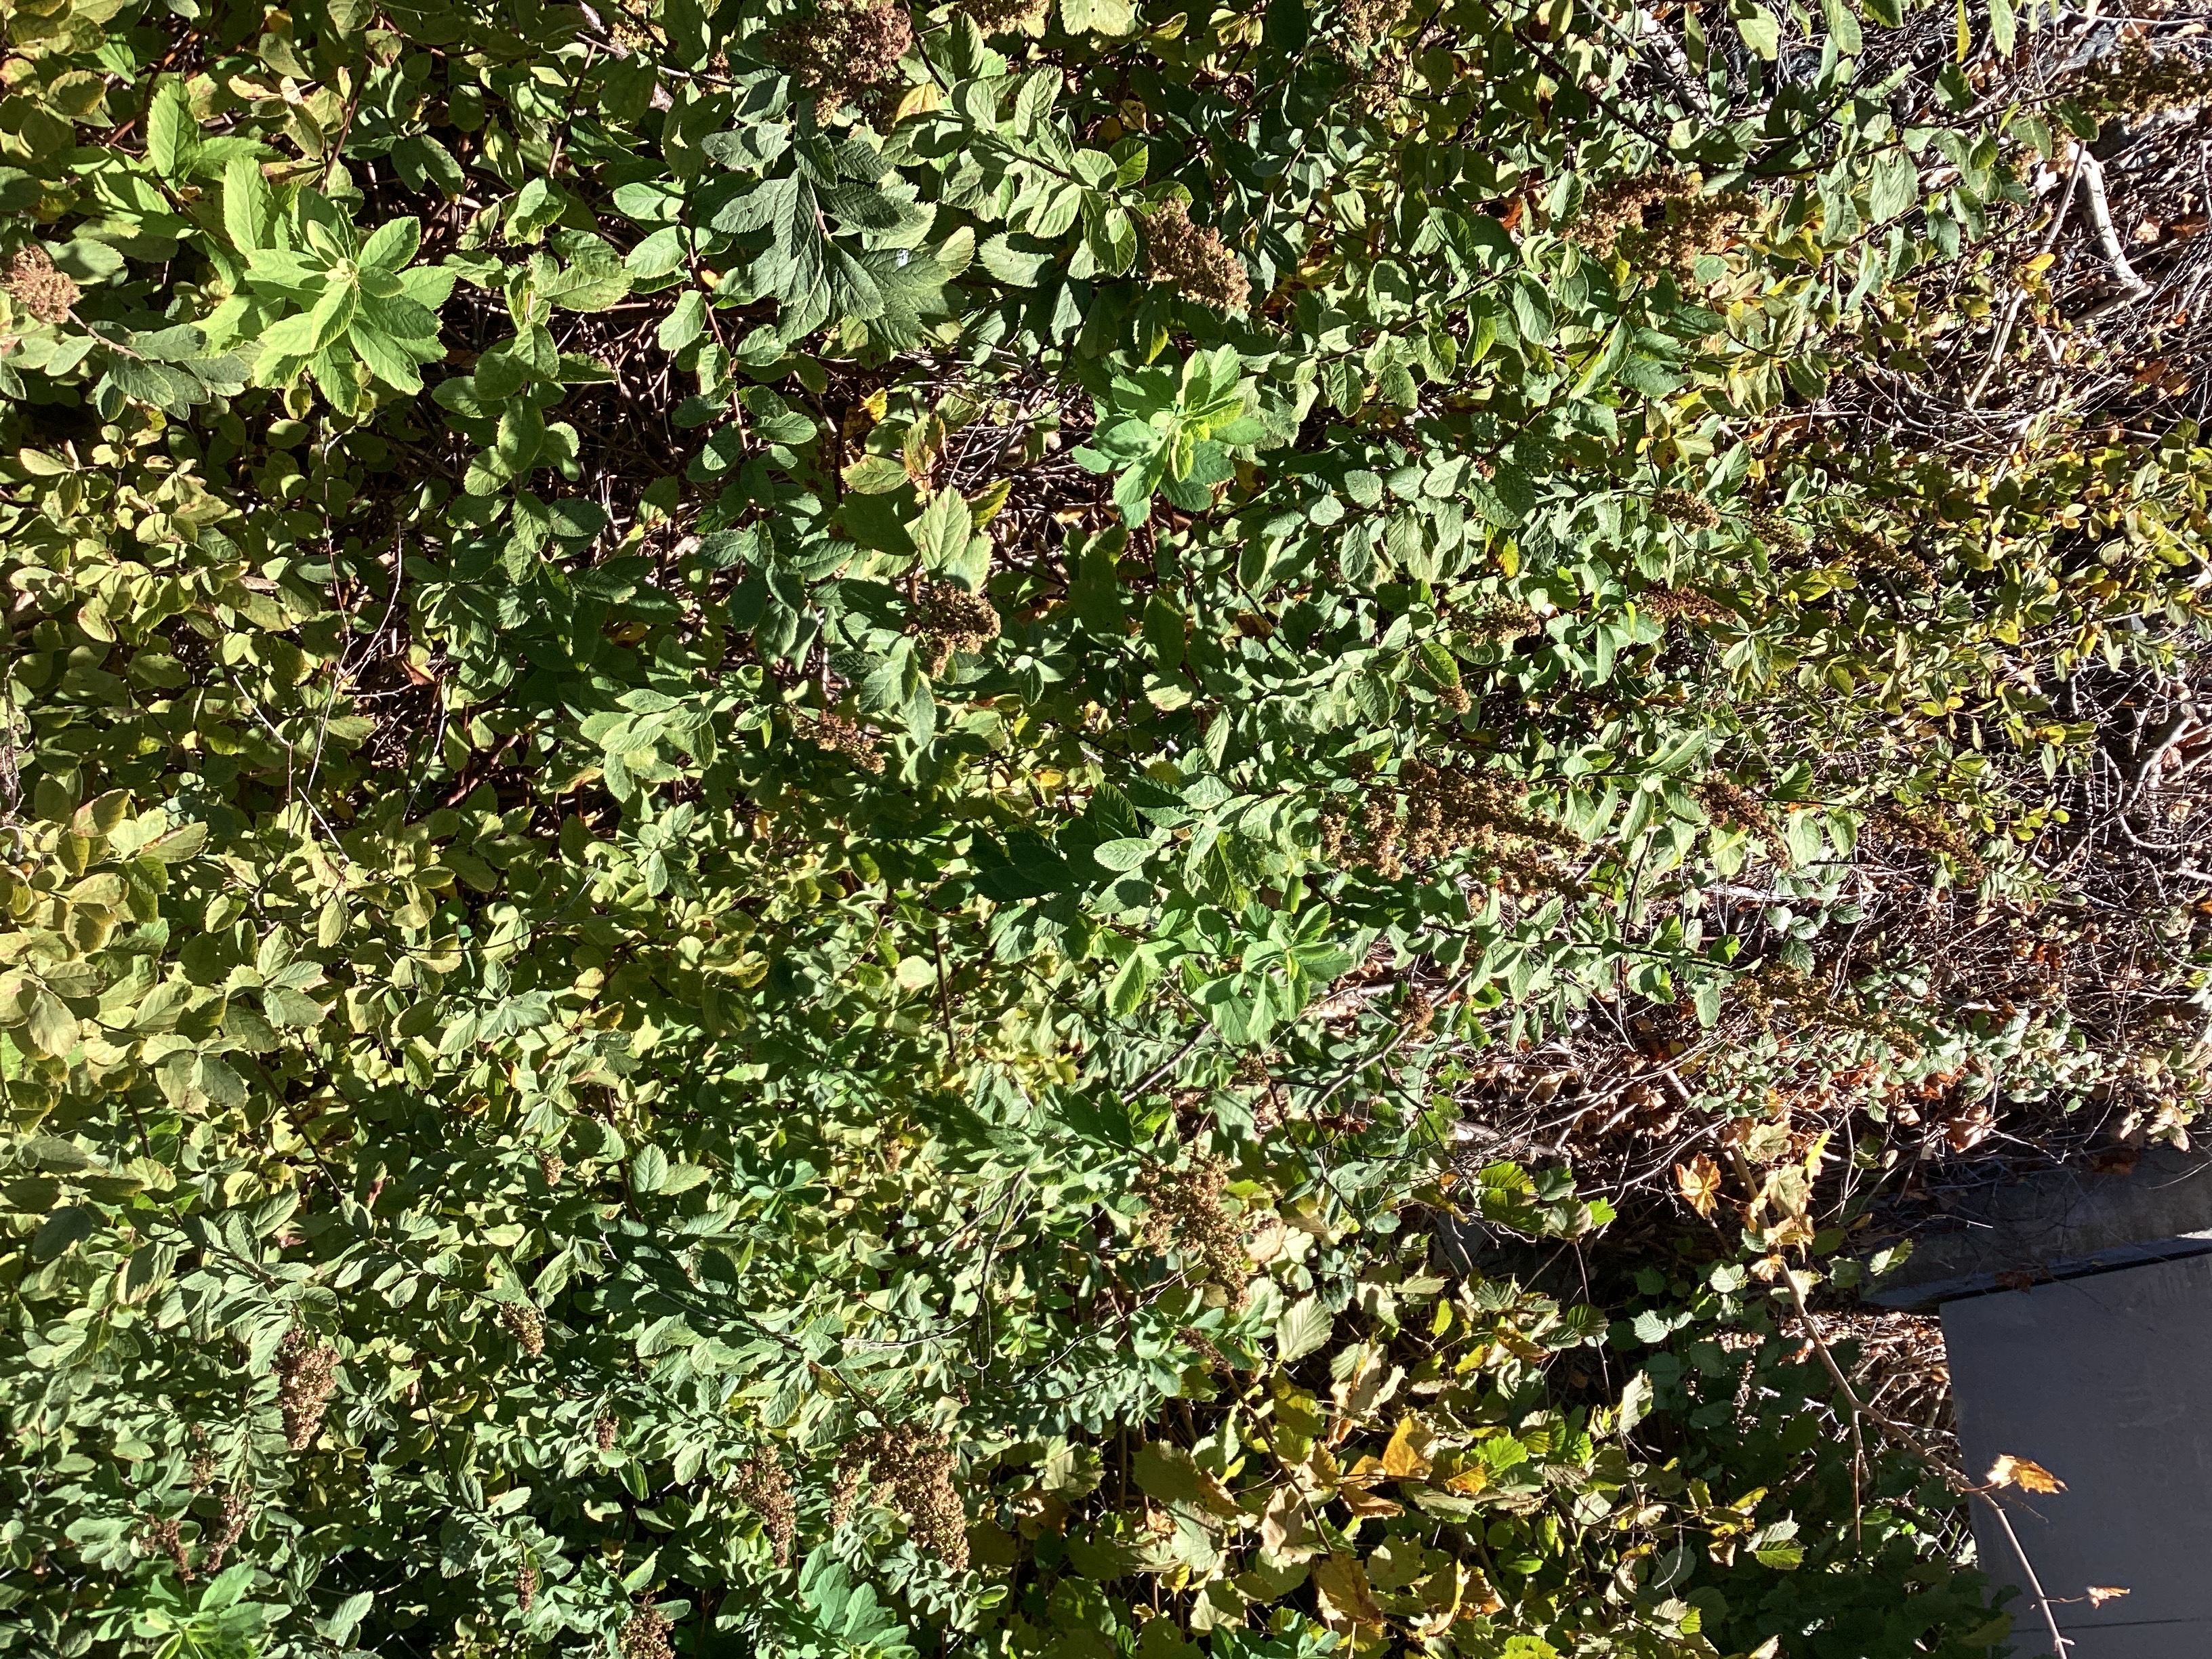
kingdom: Plantae
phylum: Tracheophyta
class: Magnoliopsida
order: Rosales
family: Rosaceae
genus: Spiraea
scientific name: Spiraea macrothyrsa
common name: storspirea
